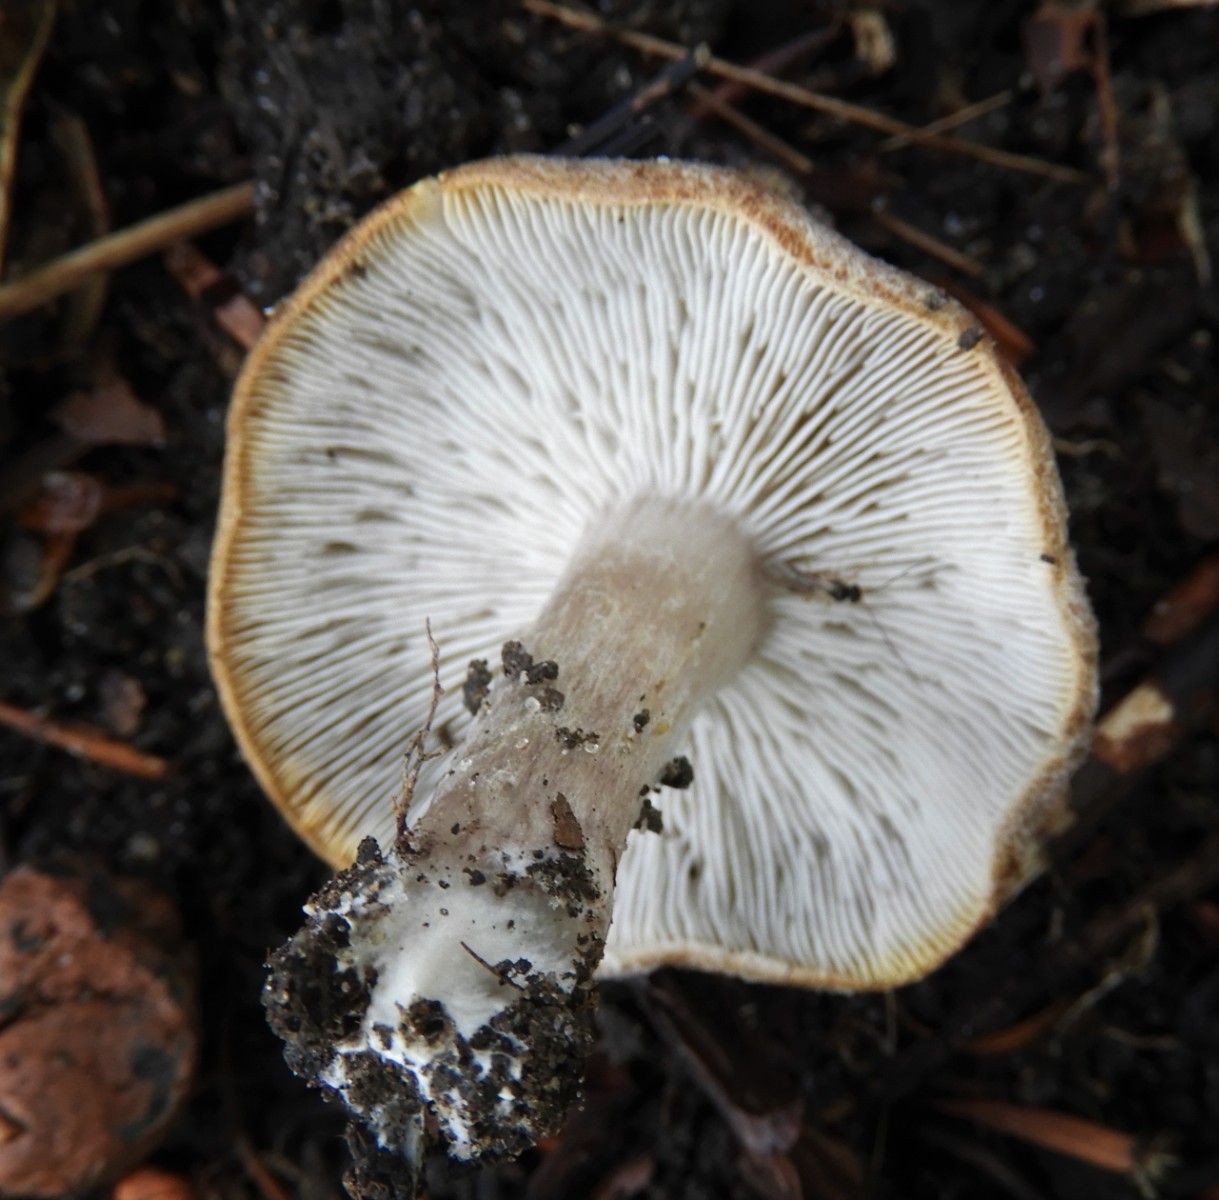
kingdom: Fungi
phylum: Basidiomycota
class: Agaricomycetes
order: Agaricales
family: Tricholomataceae
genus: Tricholoma
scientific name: Tricholoma scalpturatum
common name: gulplettet ridderhat
